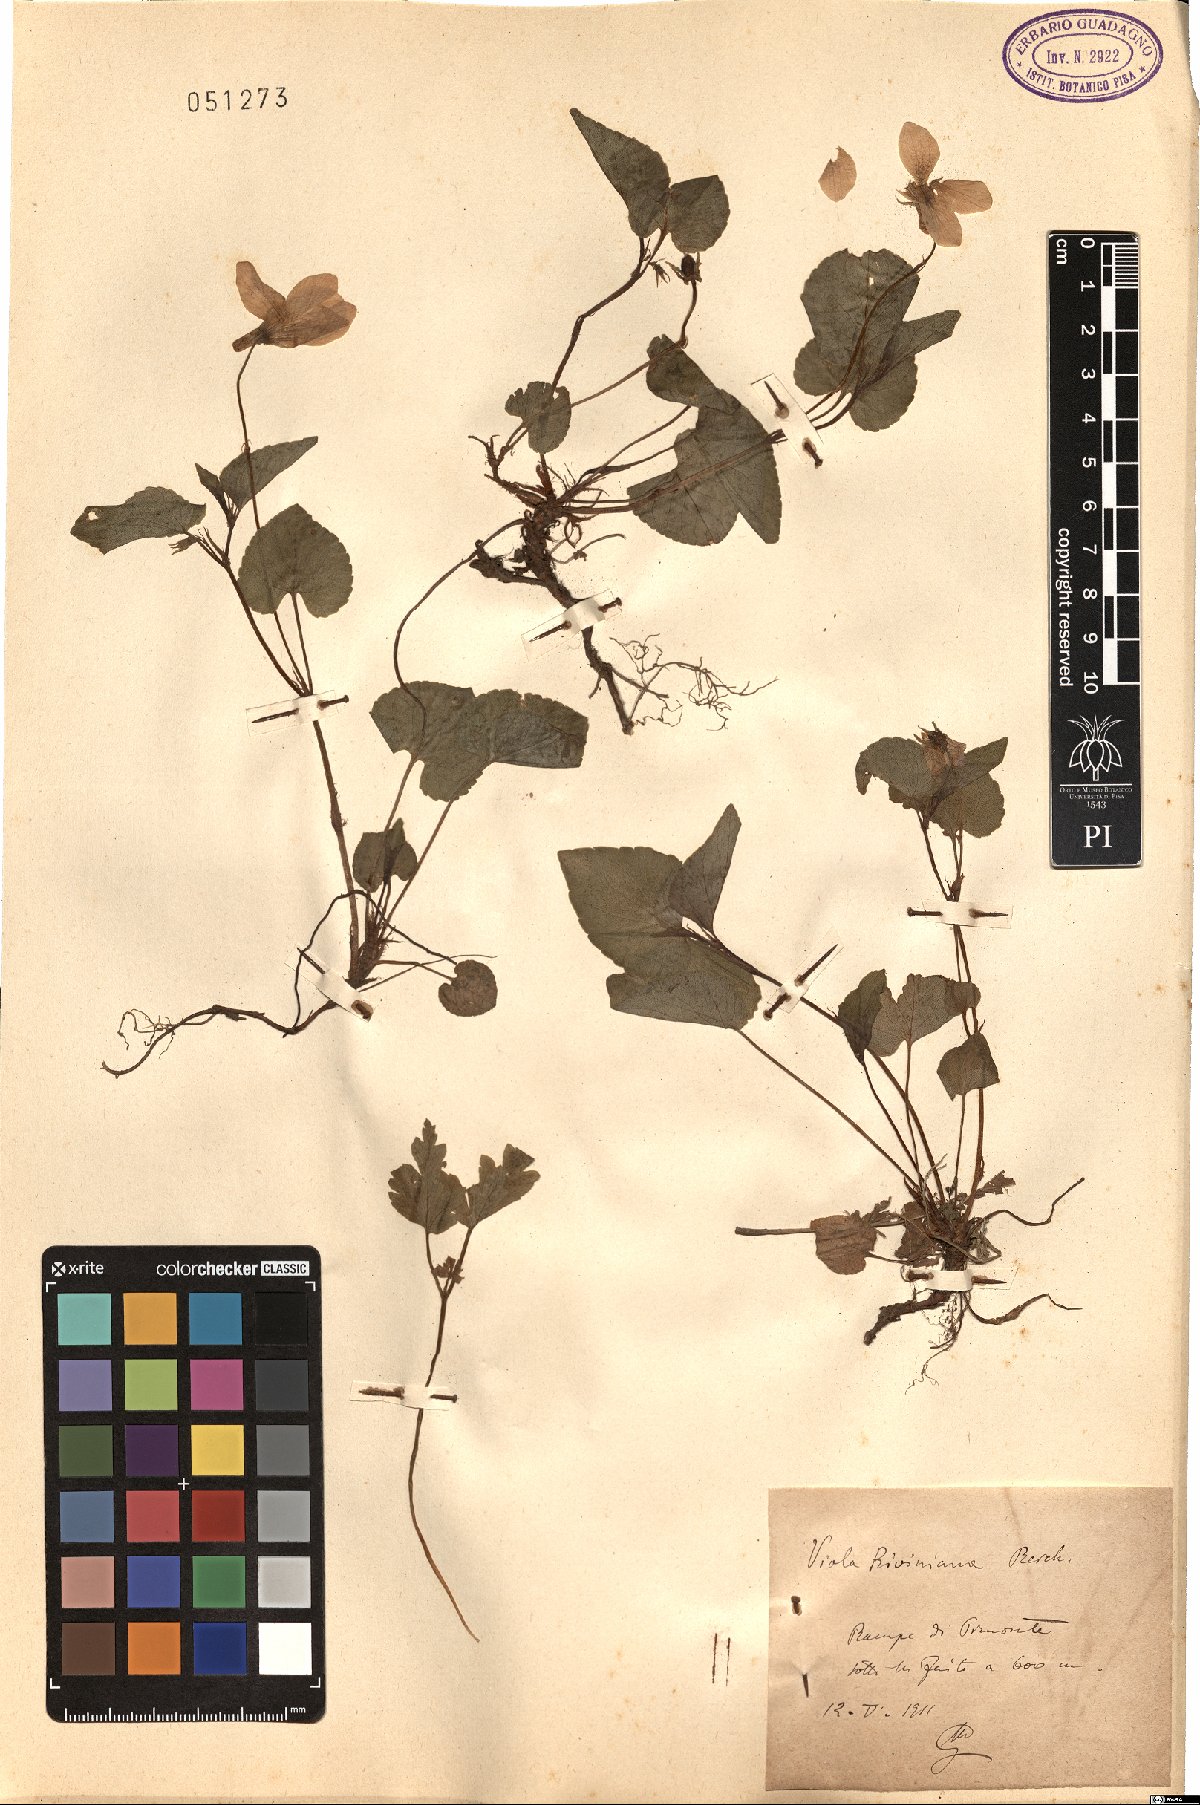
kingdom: Plantae
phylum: Tracheophyta
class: Magnoliopsida
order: Malpighiales
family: Violaceae
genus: Viola
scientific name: Viola riviniana
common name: Common dog-violet
